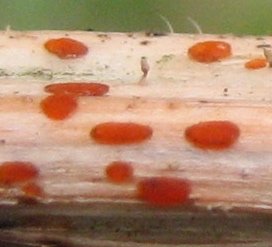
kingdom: Fungi
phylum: Ascomycota
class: Leotiomycetes
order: Helotiales
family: Calloriaceae
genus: Calloria
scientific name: Calloria urticae
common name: nælde-orangeskive
